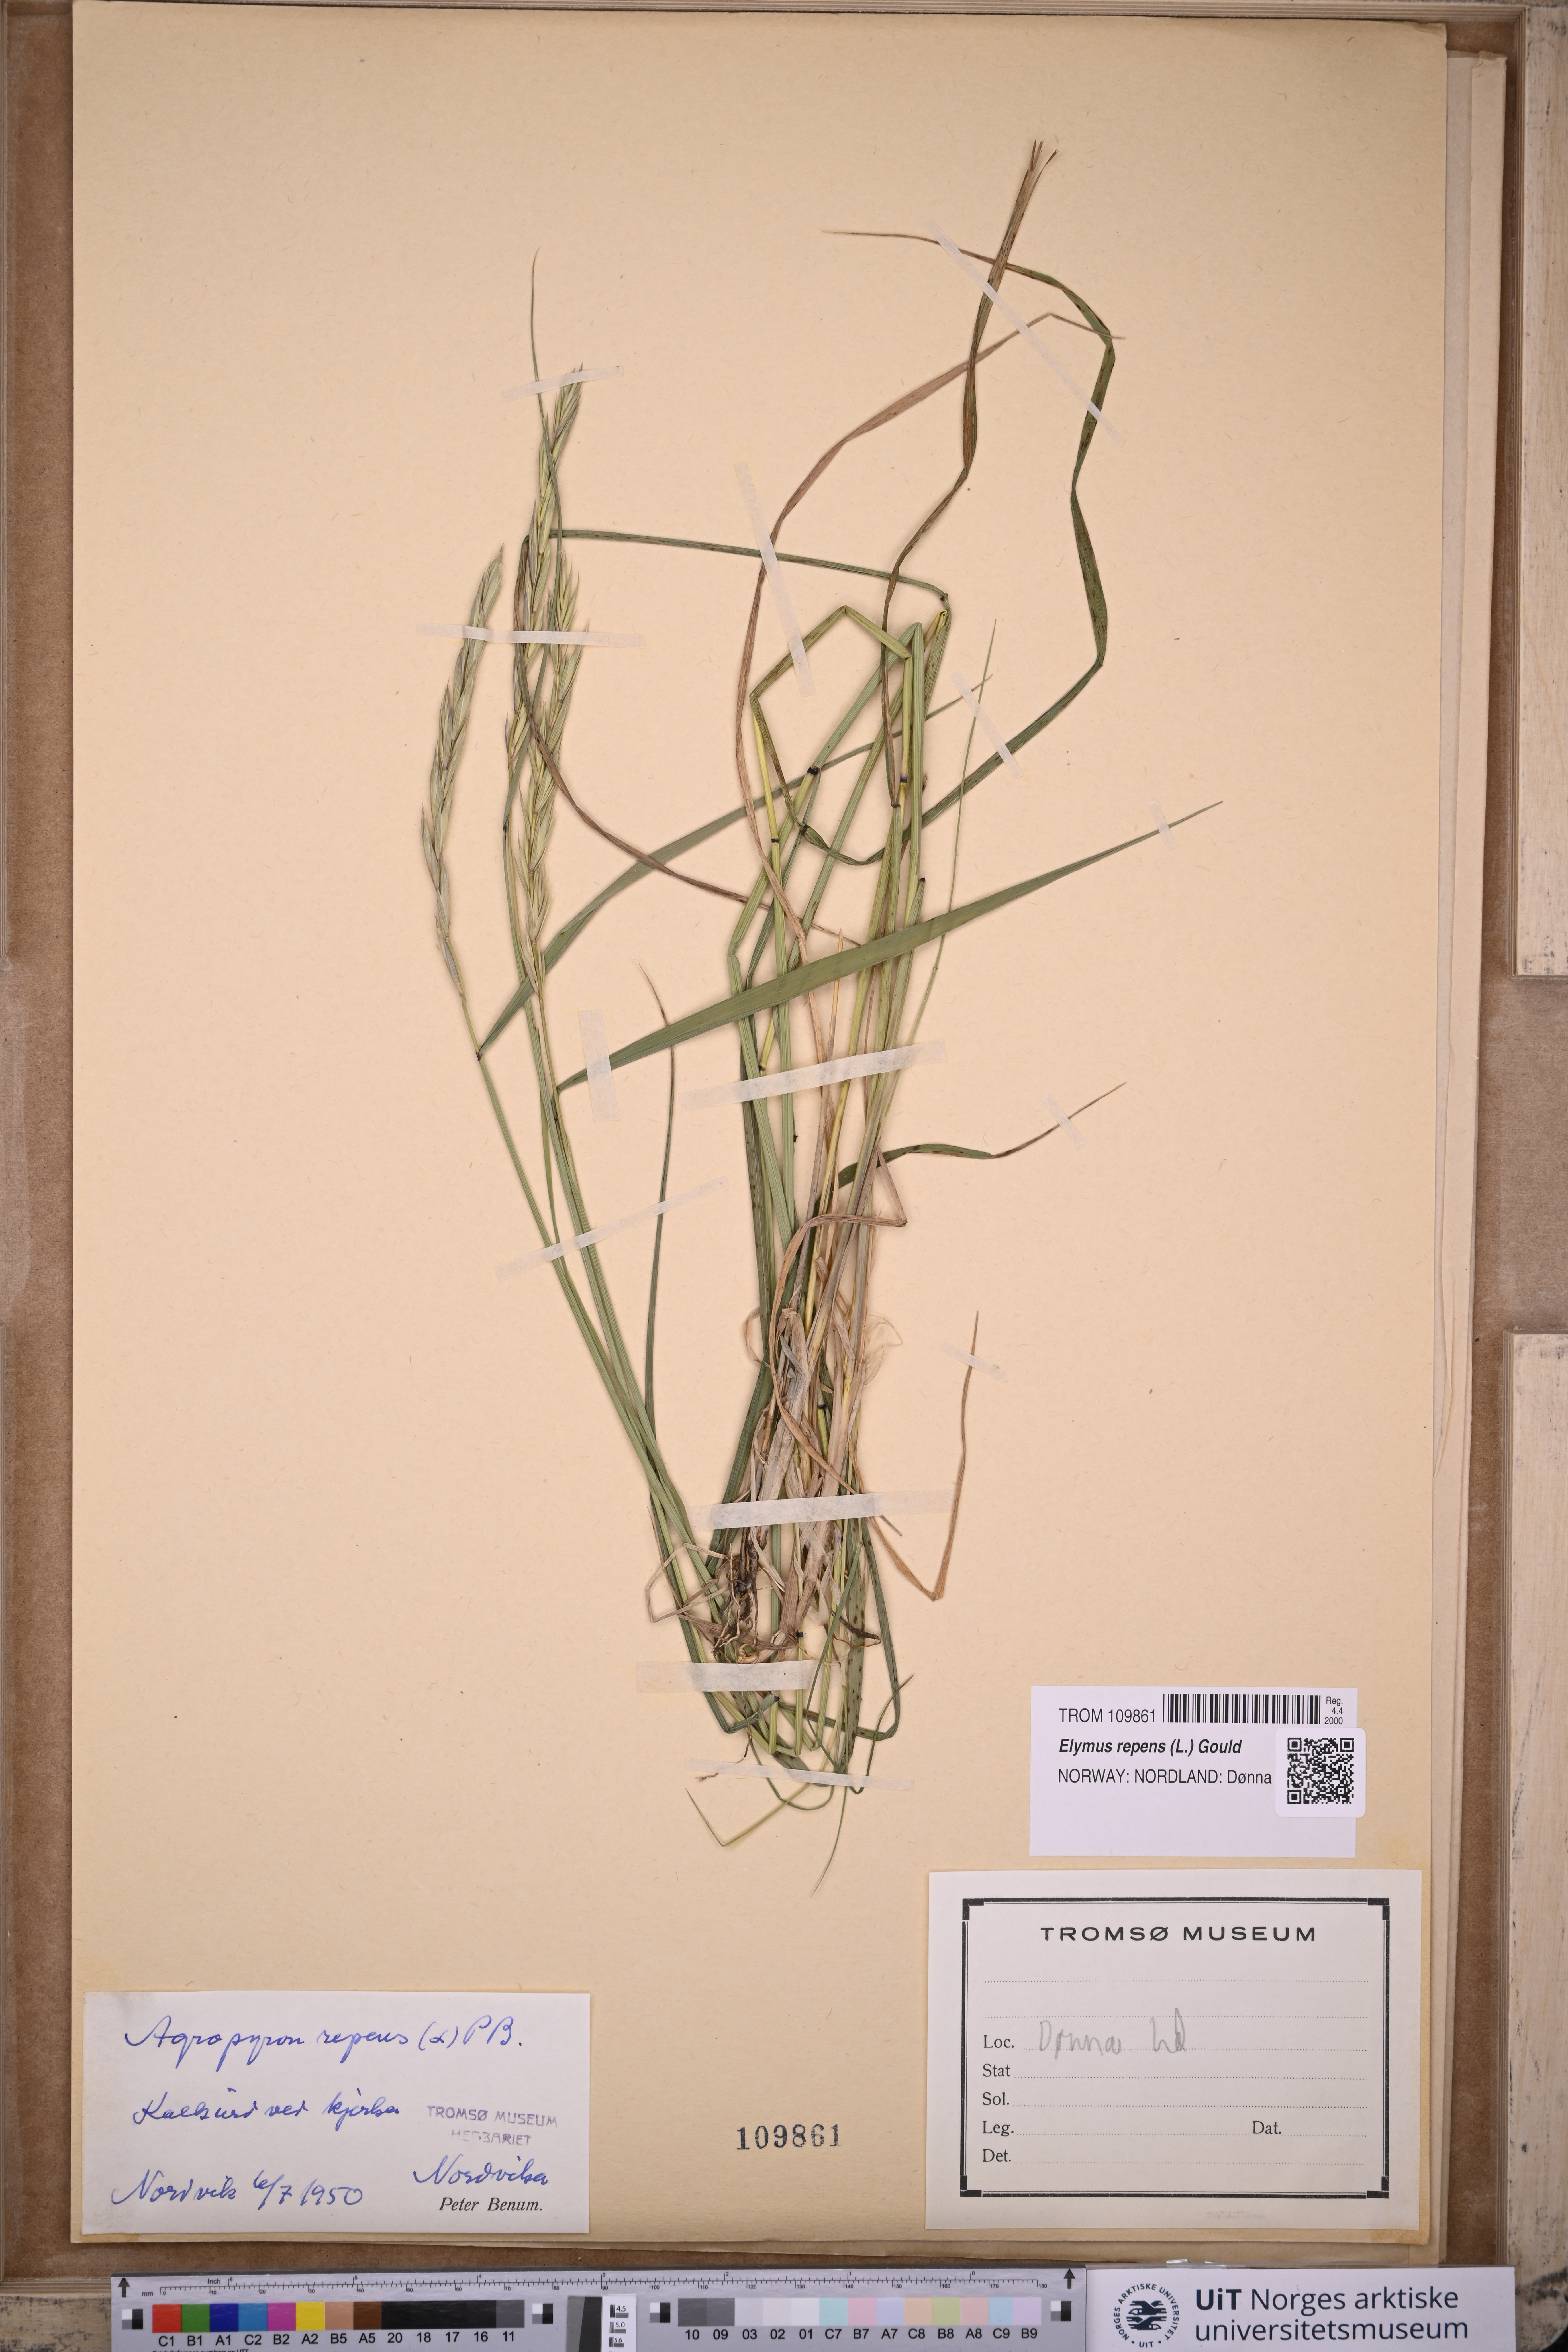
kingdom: Plantae
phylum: Tracheophyta
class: Liliopsida
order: Poales
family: Poaceae
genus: Elymus
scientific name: Elymus repens
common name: Quackgrass
